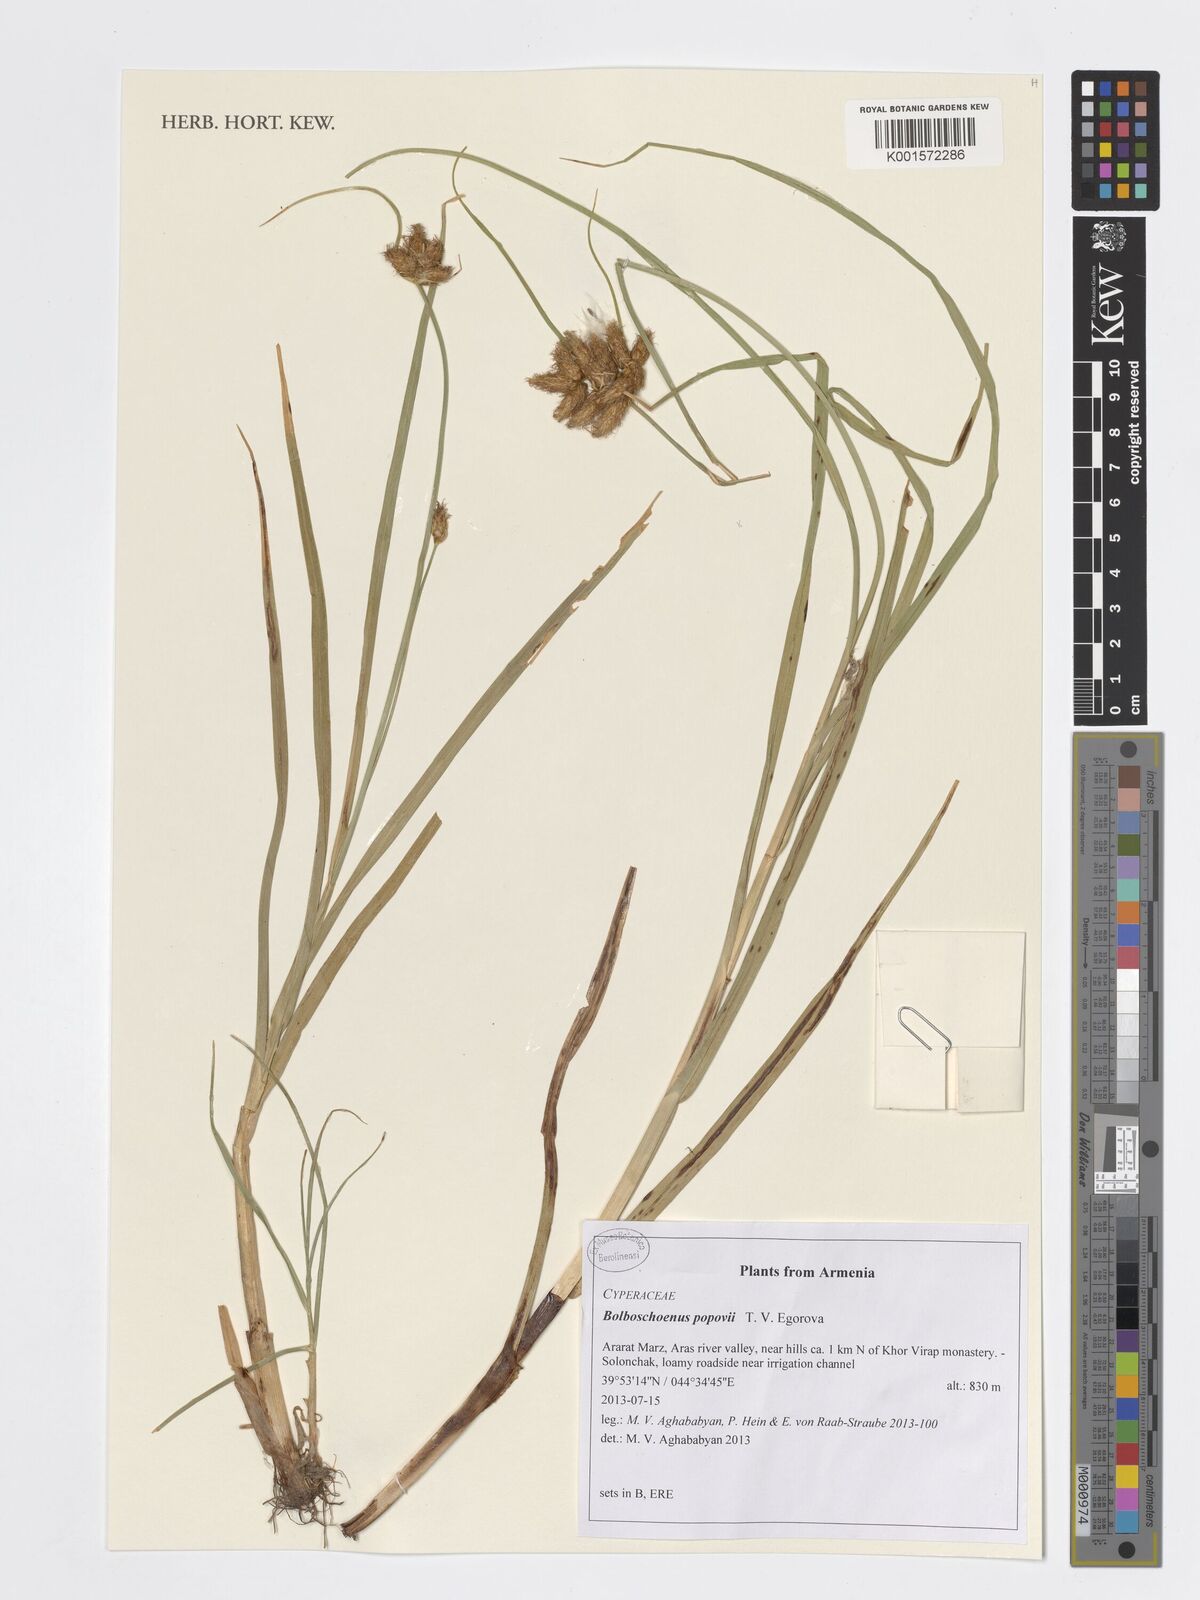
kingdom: Plantae
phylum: Tracheophyta
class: Liliopsida
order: Poales
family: Cyperaceae
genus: Bolboschoenus
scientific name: Bolboschoenus maritimus
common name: Sea club-rush
